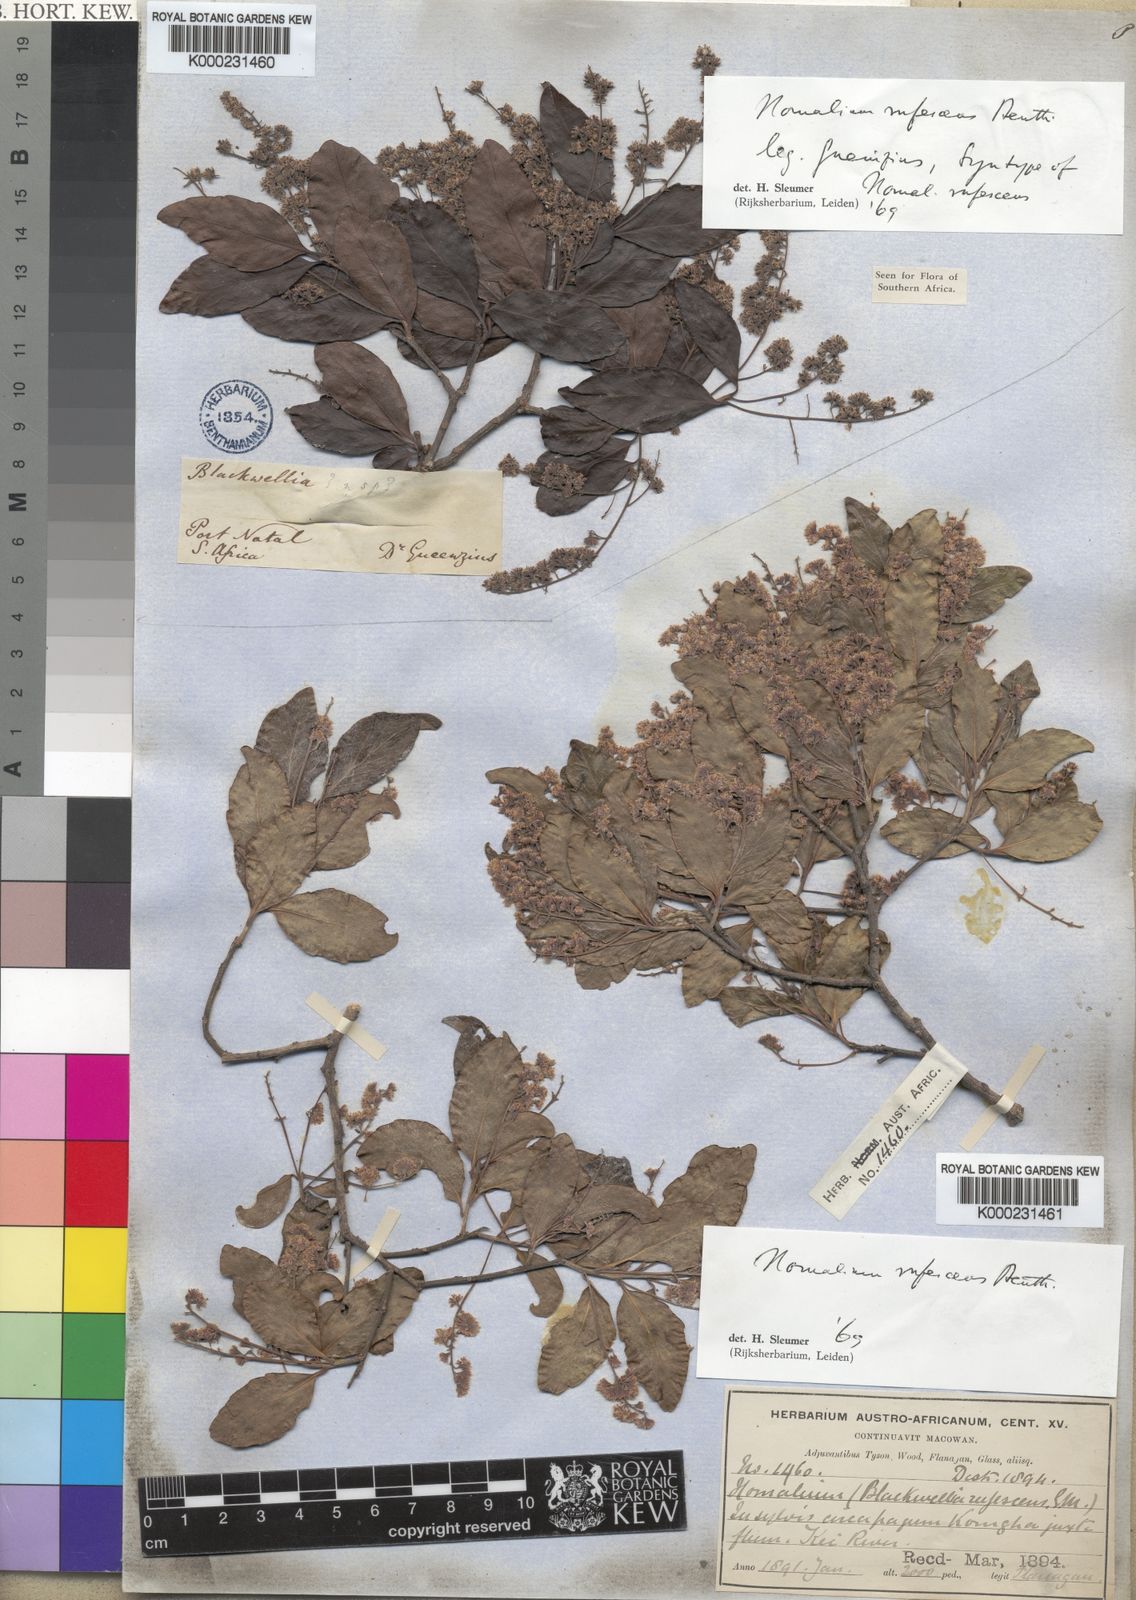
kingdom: Plantae
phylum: Tracheophyta
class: Magnoliopsida
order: Malpighiales
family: Salicaceae
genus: Homalium
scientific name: Homalium rufescens
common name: Small-leaved brown-ironwood
